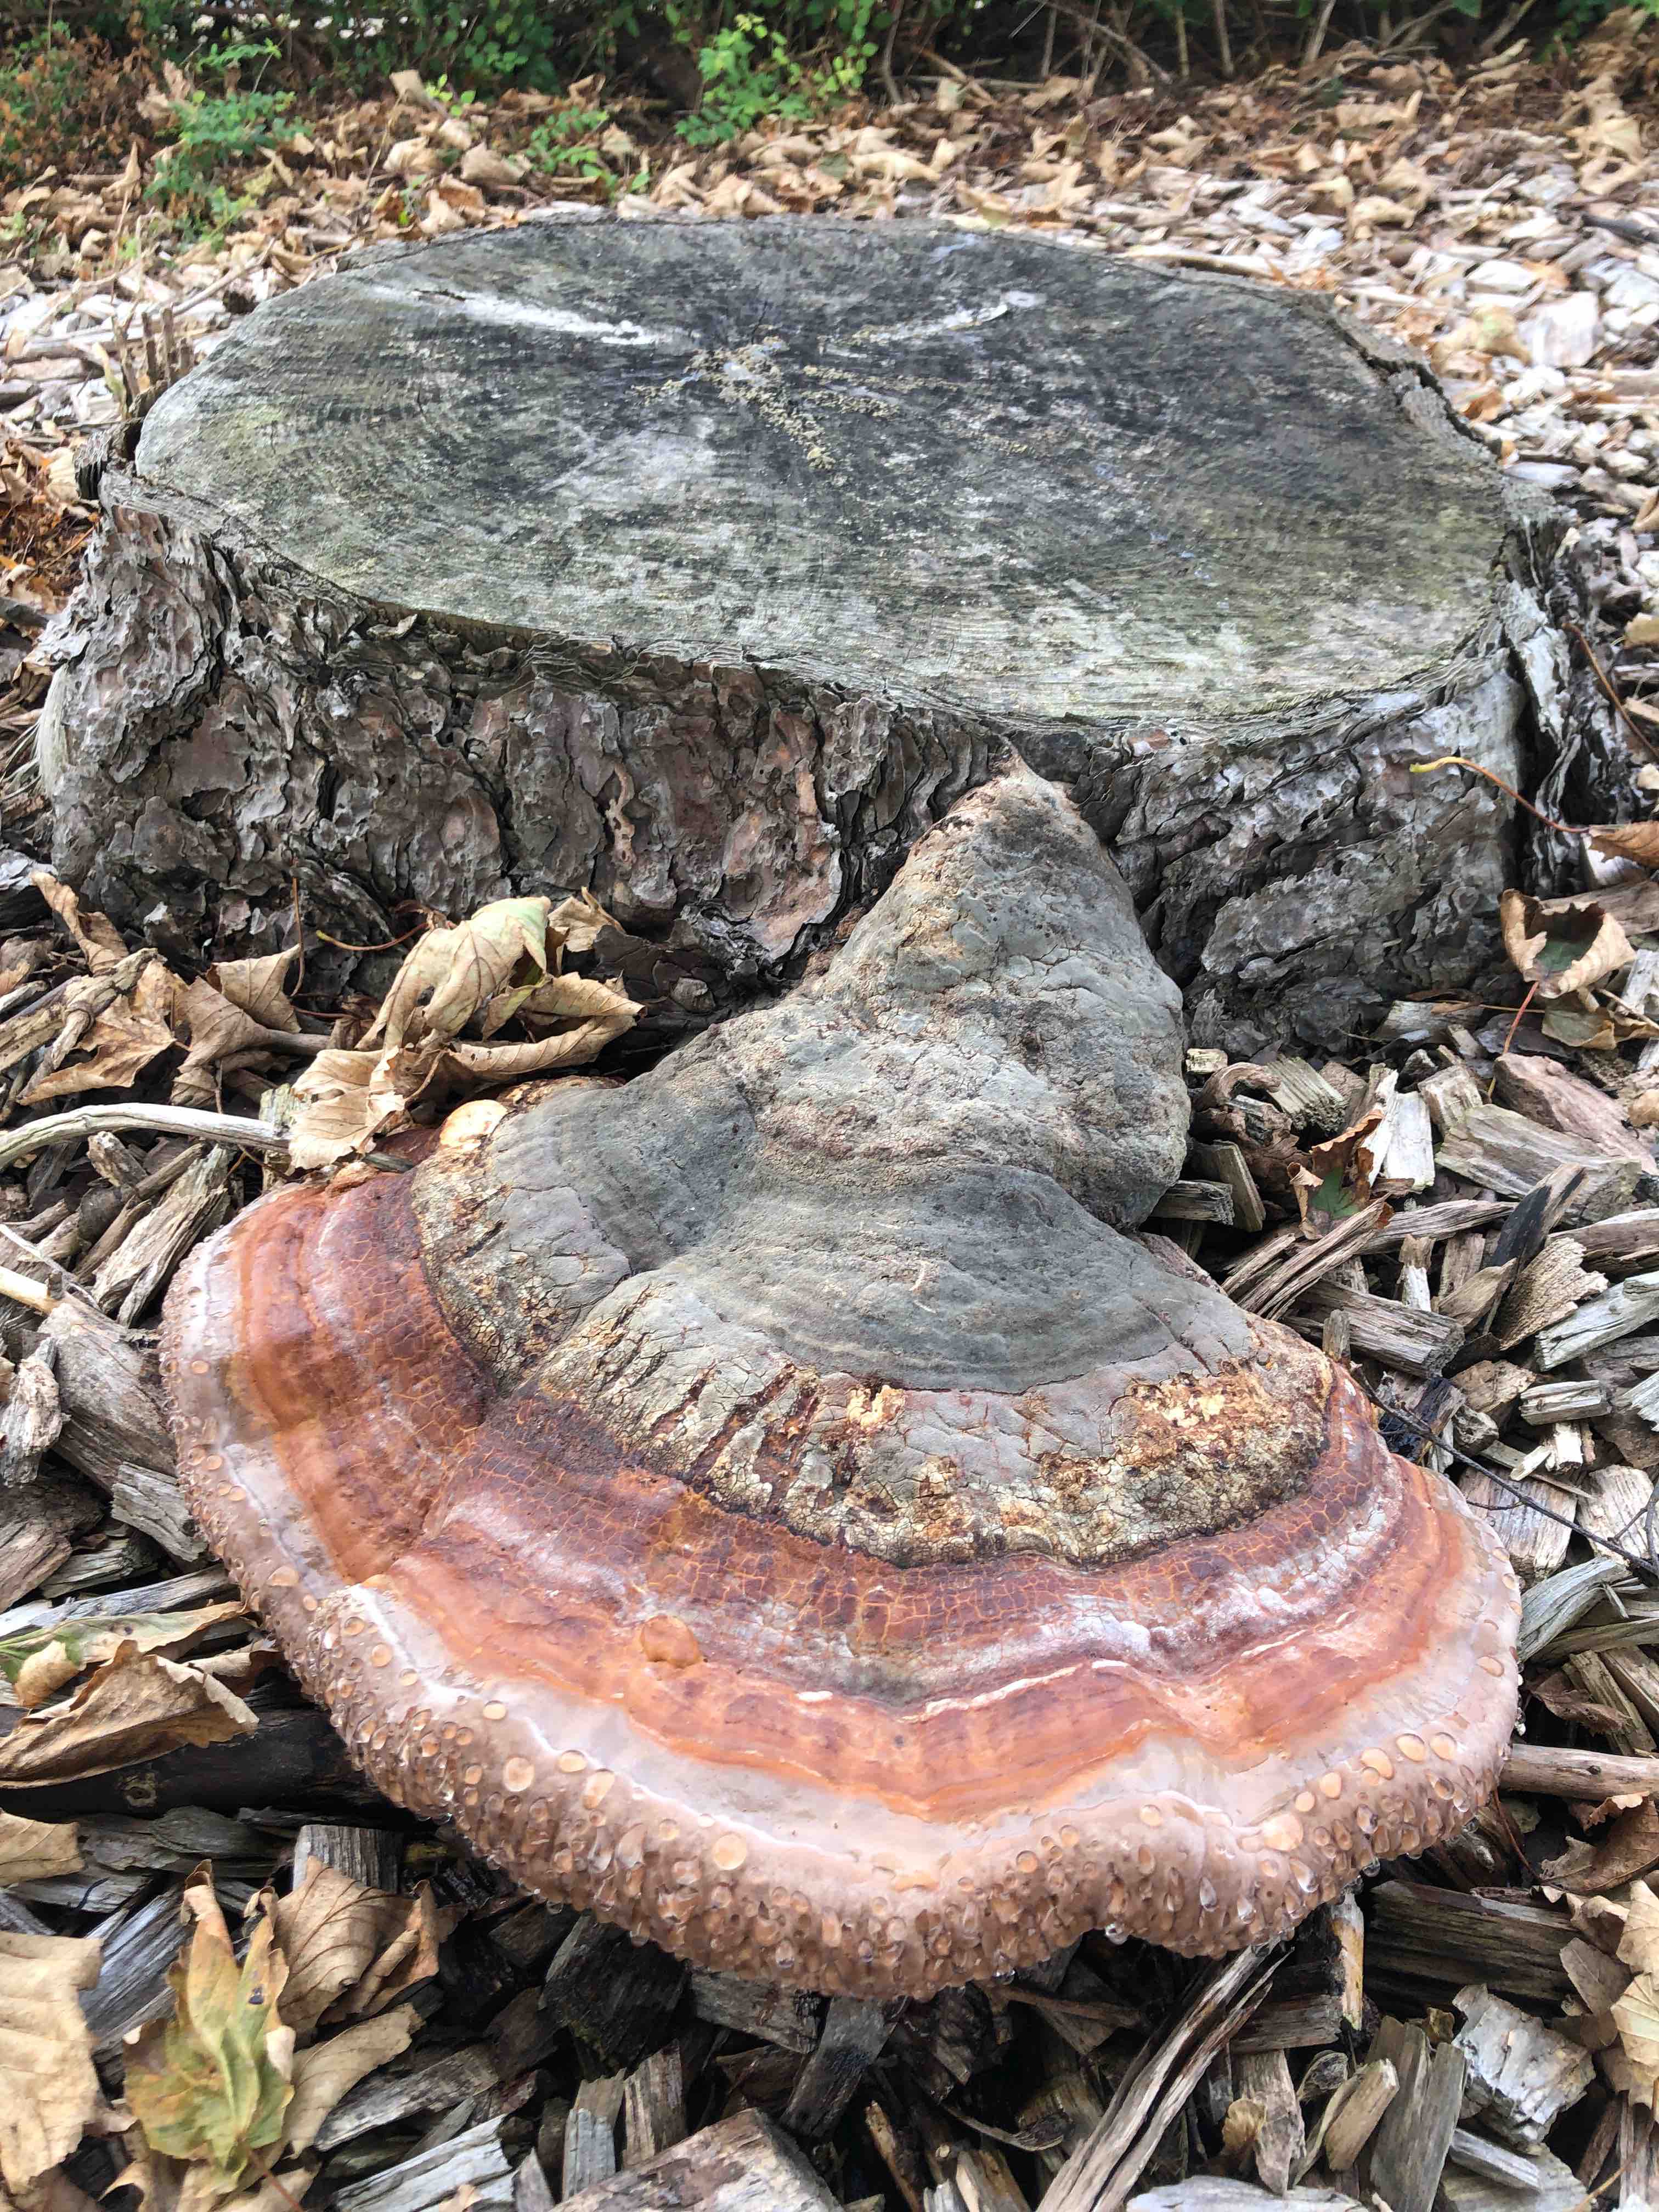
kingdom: Fungi
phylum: Basidiomycota
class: Agaricomycetes
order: Polyporales
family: Fomitopsidaceae
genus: Fomitopsis
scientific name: Fomitopsis pinicola
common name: randbæltet hovporesvamp
